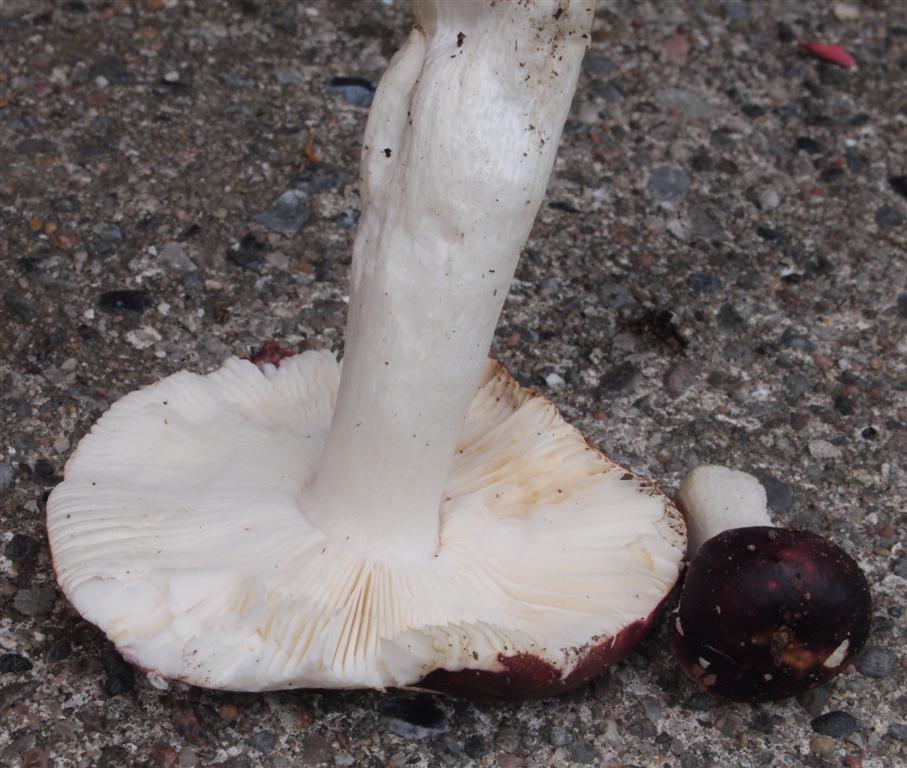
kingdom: Fungi
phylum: Basidiomycota
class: Agaricomycetes
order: Russulales
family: Russulaceae
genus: Russula
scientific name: Russula atropurpurea
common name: purpurbroget skørhat
